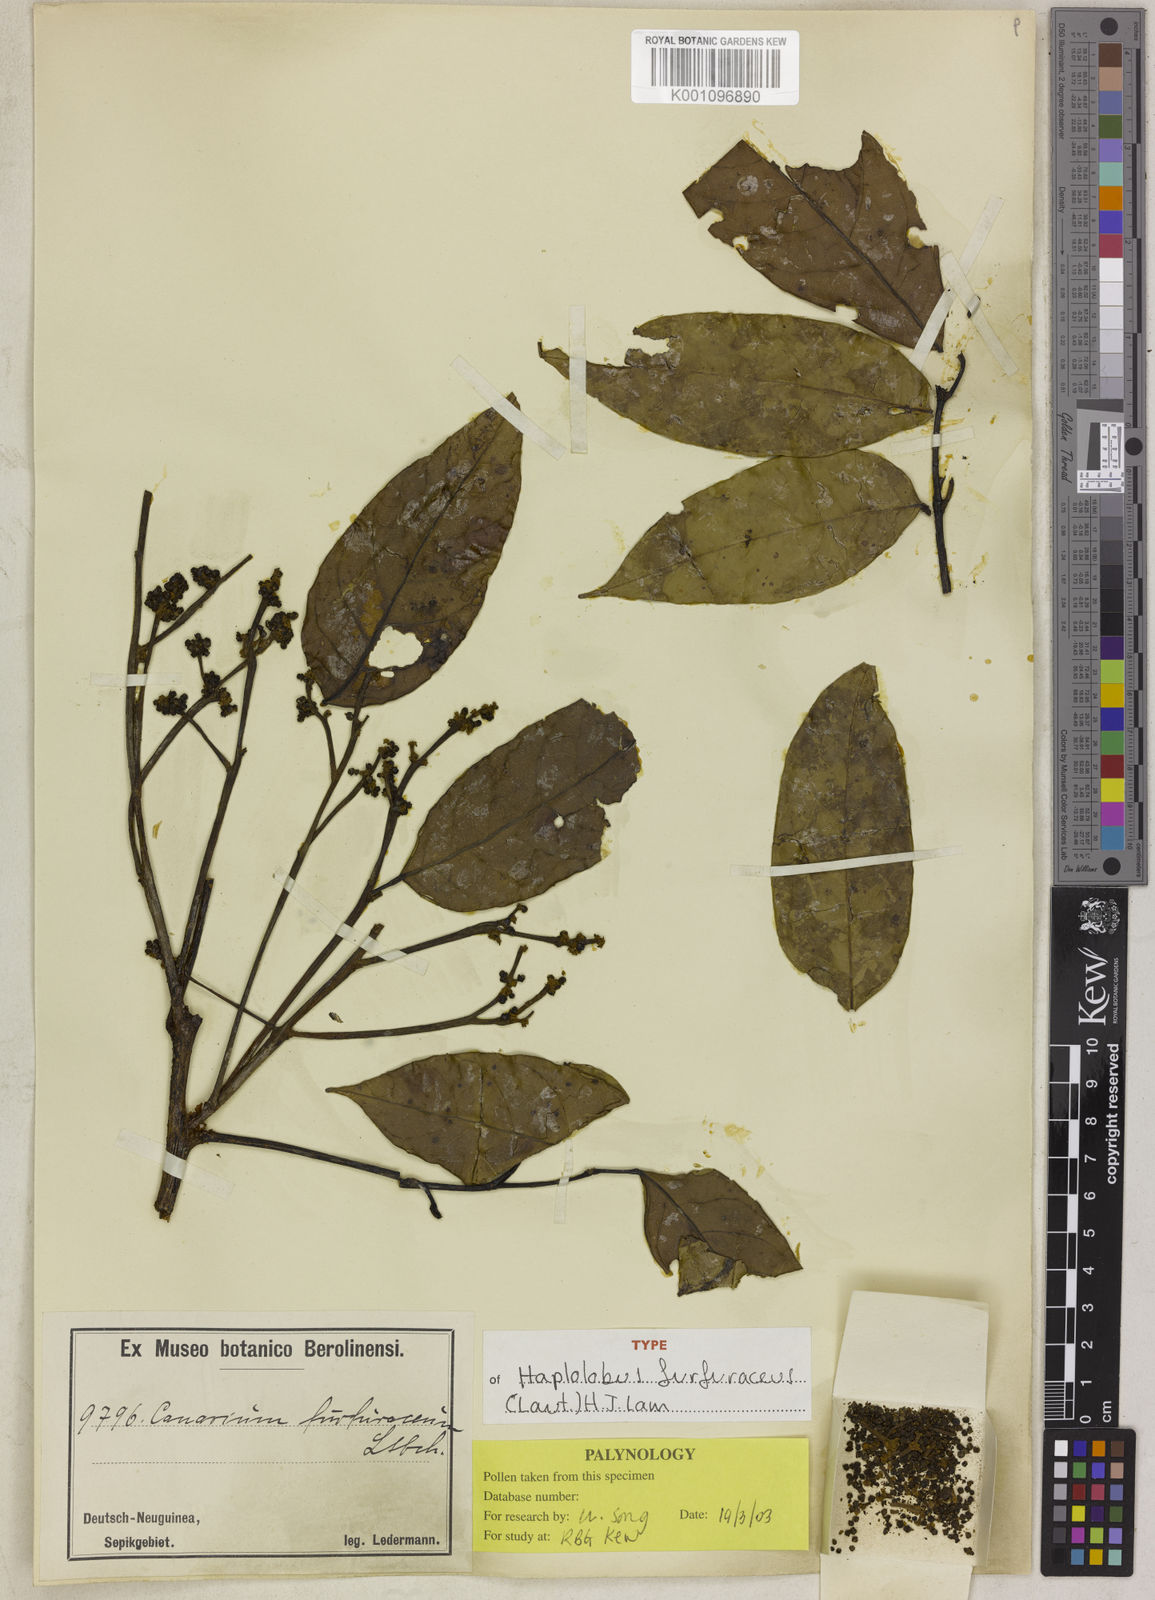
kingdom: Plantae
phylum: Tracheophyta
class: Magnoliopsida
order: Sapindales
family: Burseraceae
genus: Haplolobus
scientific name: Haplolobus furfuraceus
